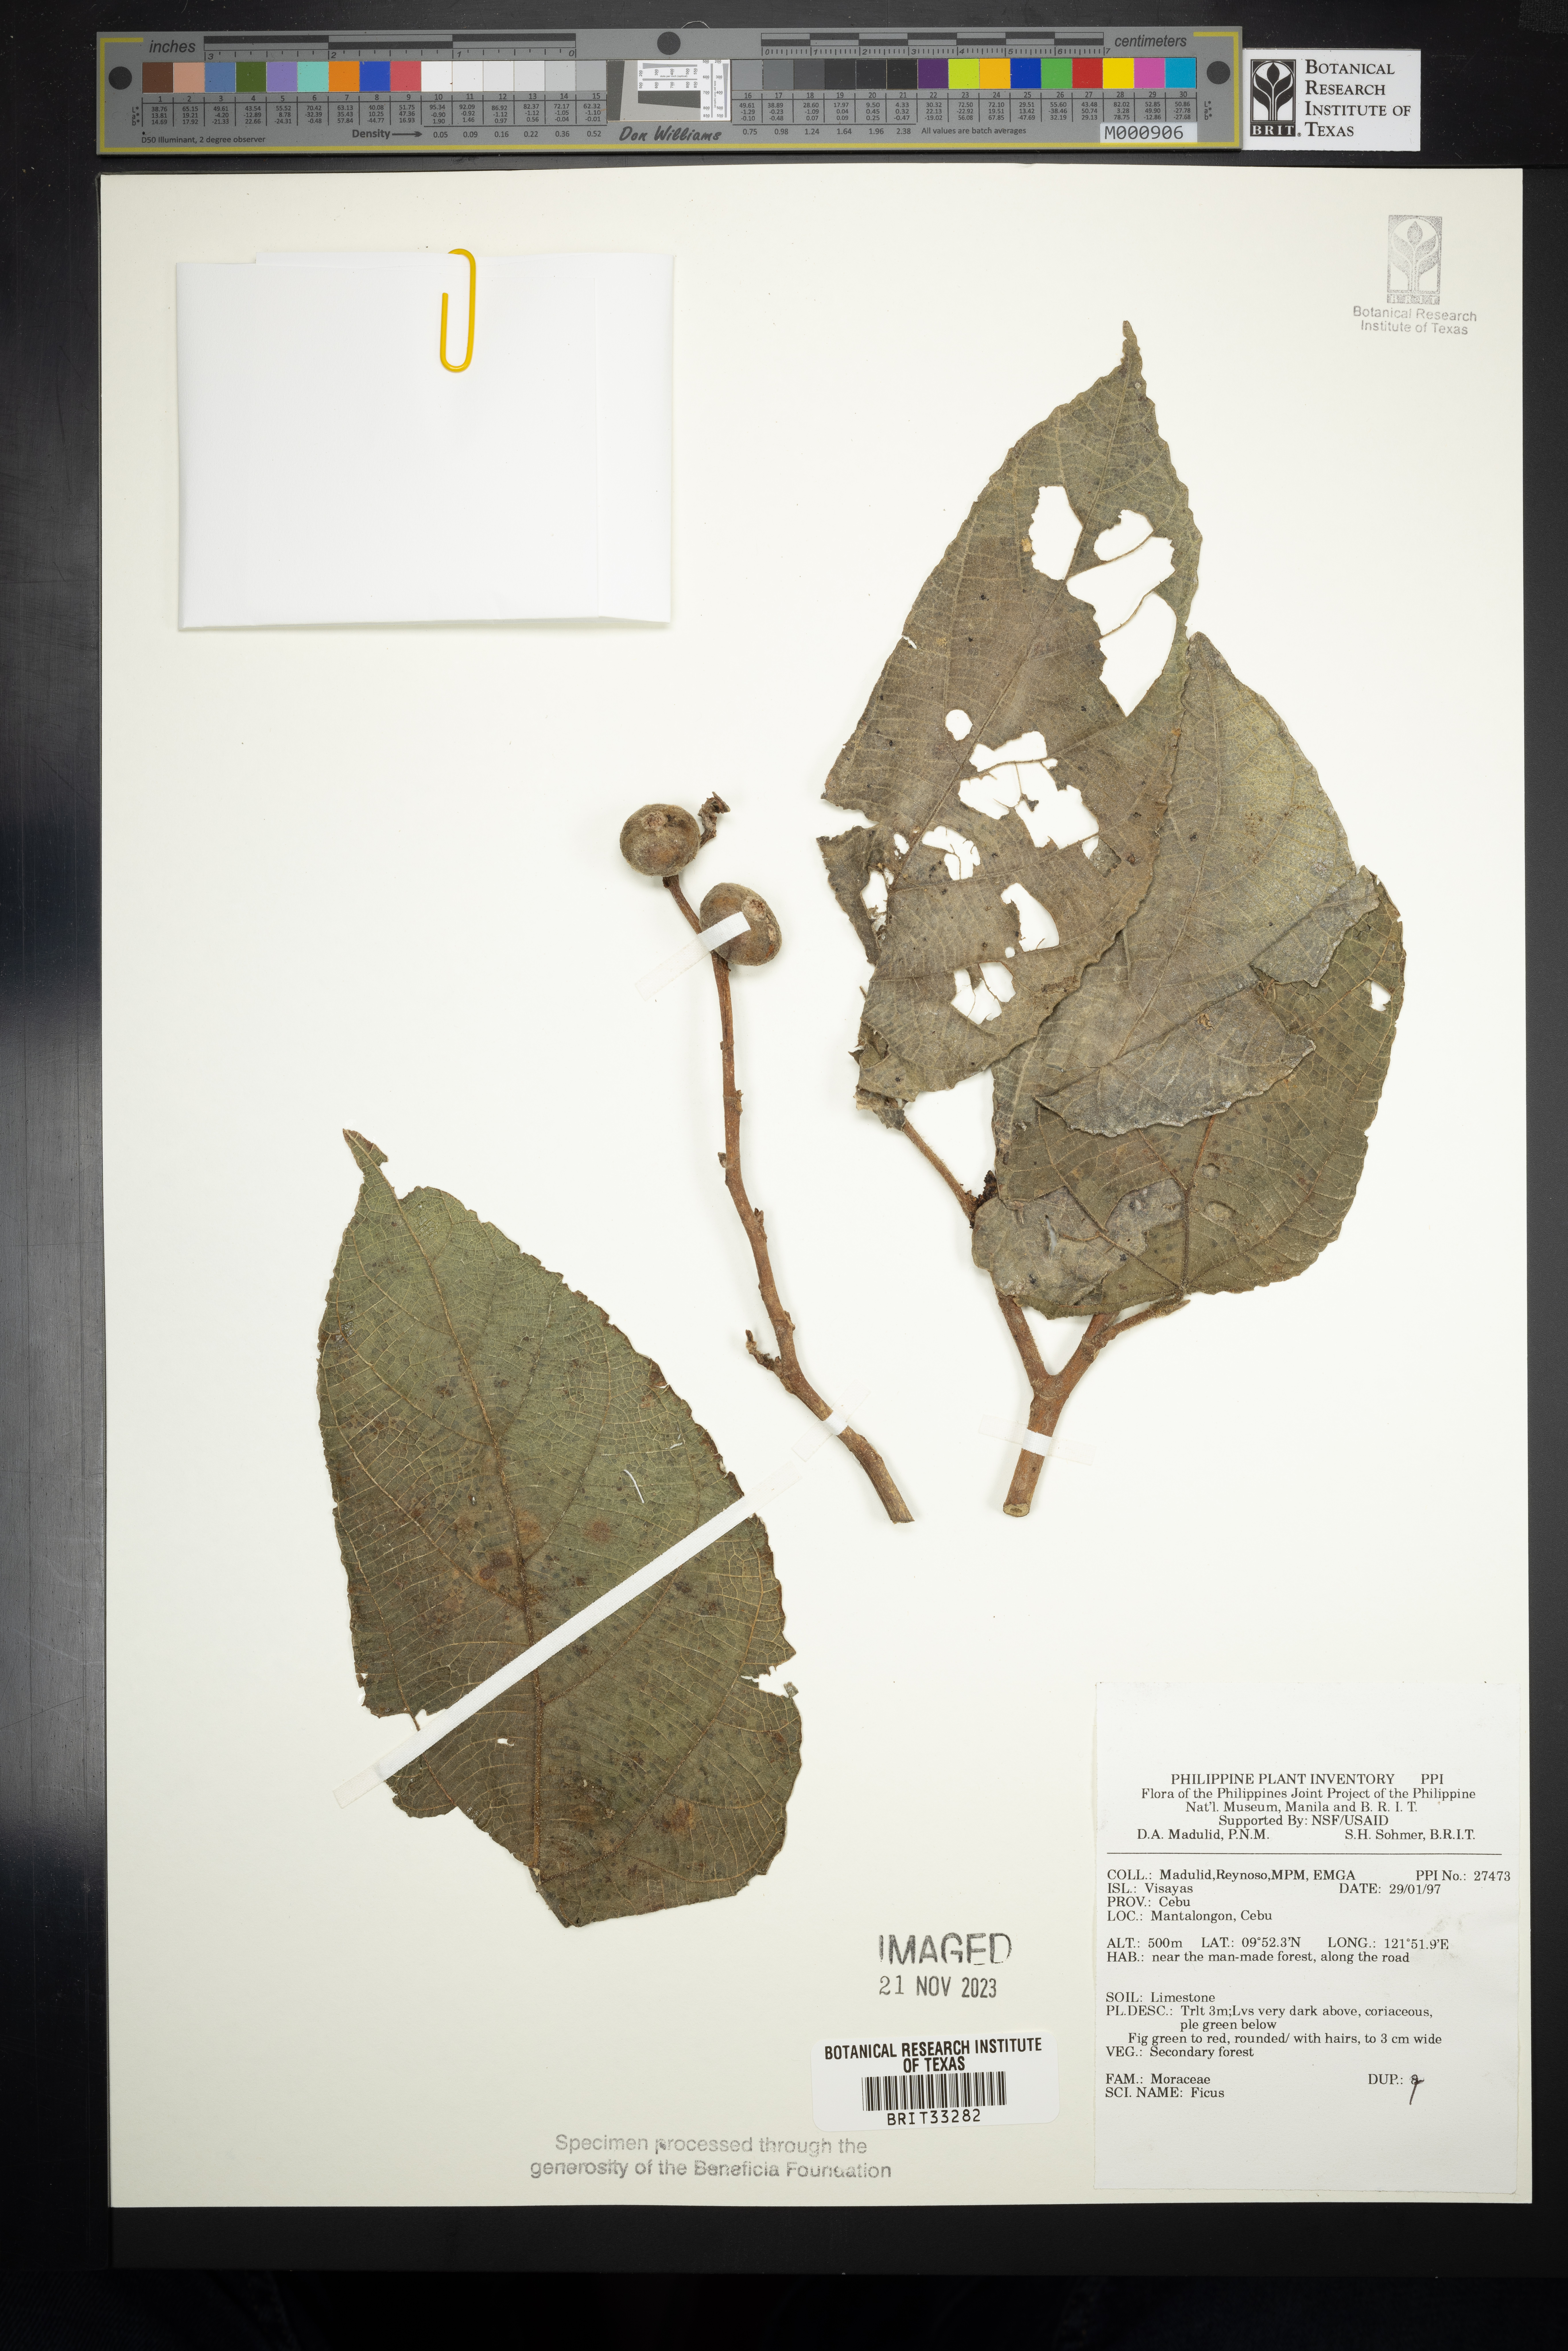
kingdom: Plantae
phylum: Tracheophyta
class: Magnoliopsida
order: Rosales
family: Moraceae
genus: Ficus
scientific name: Ficus
